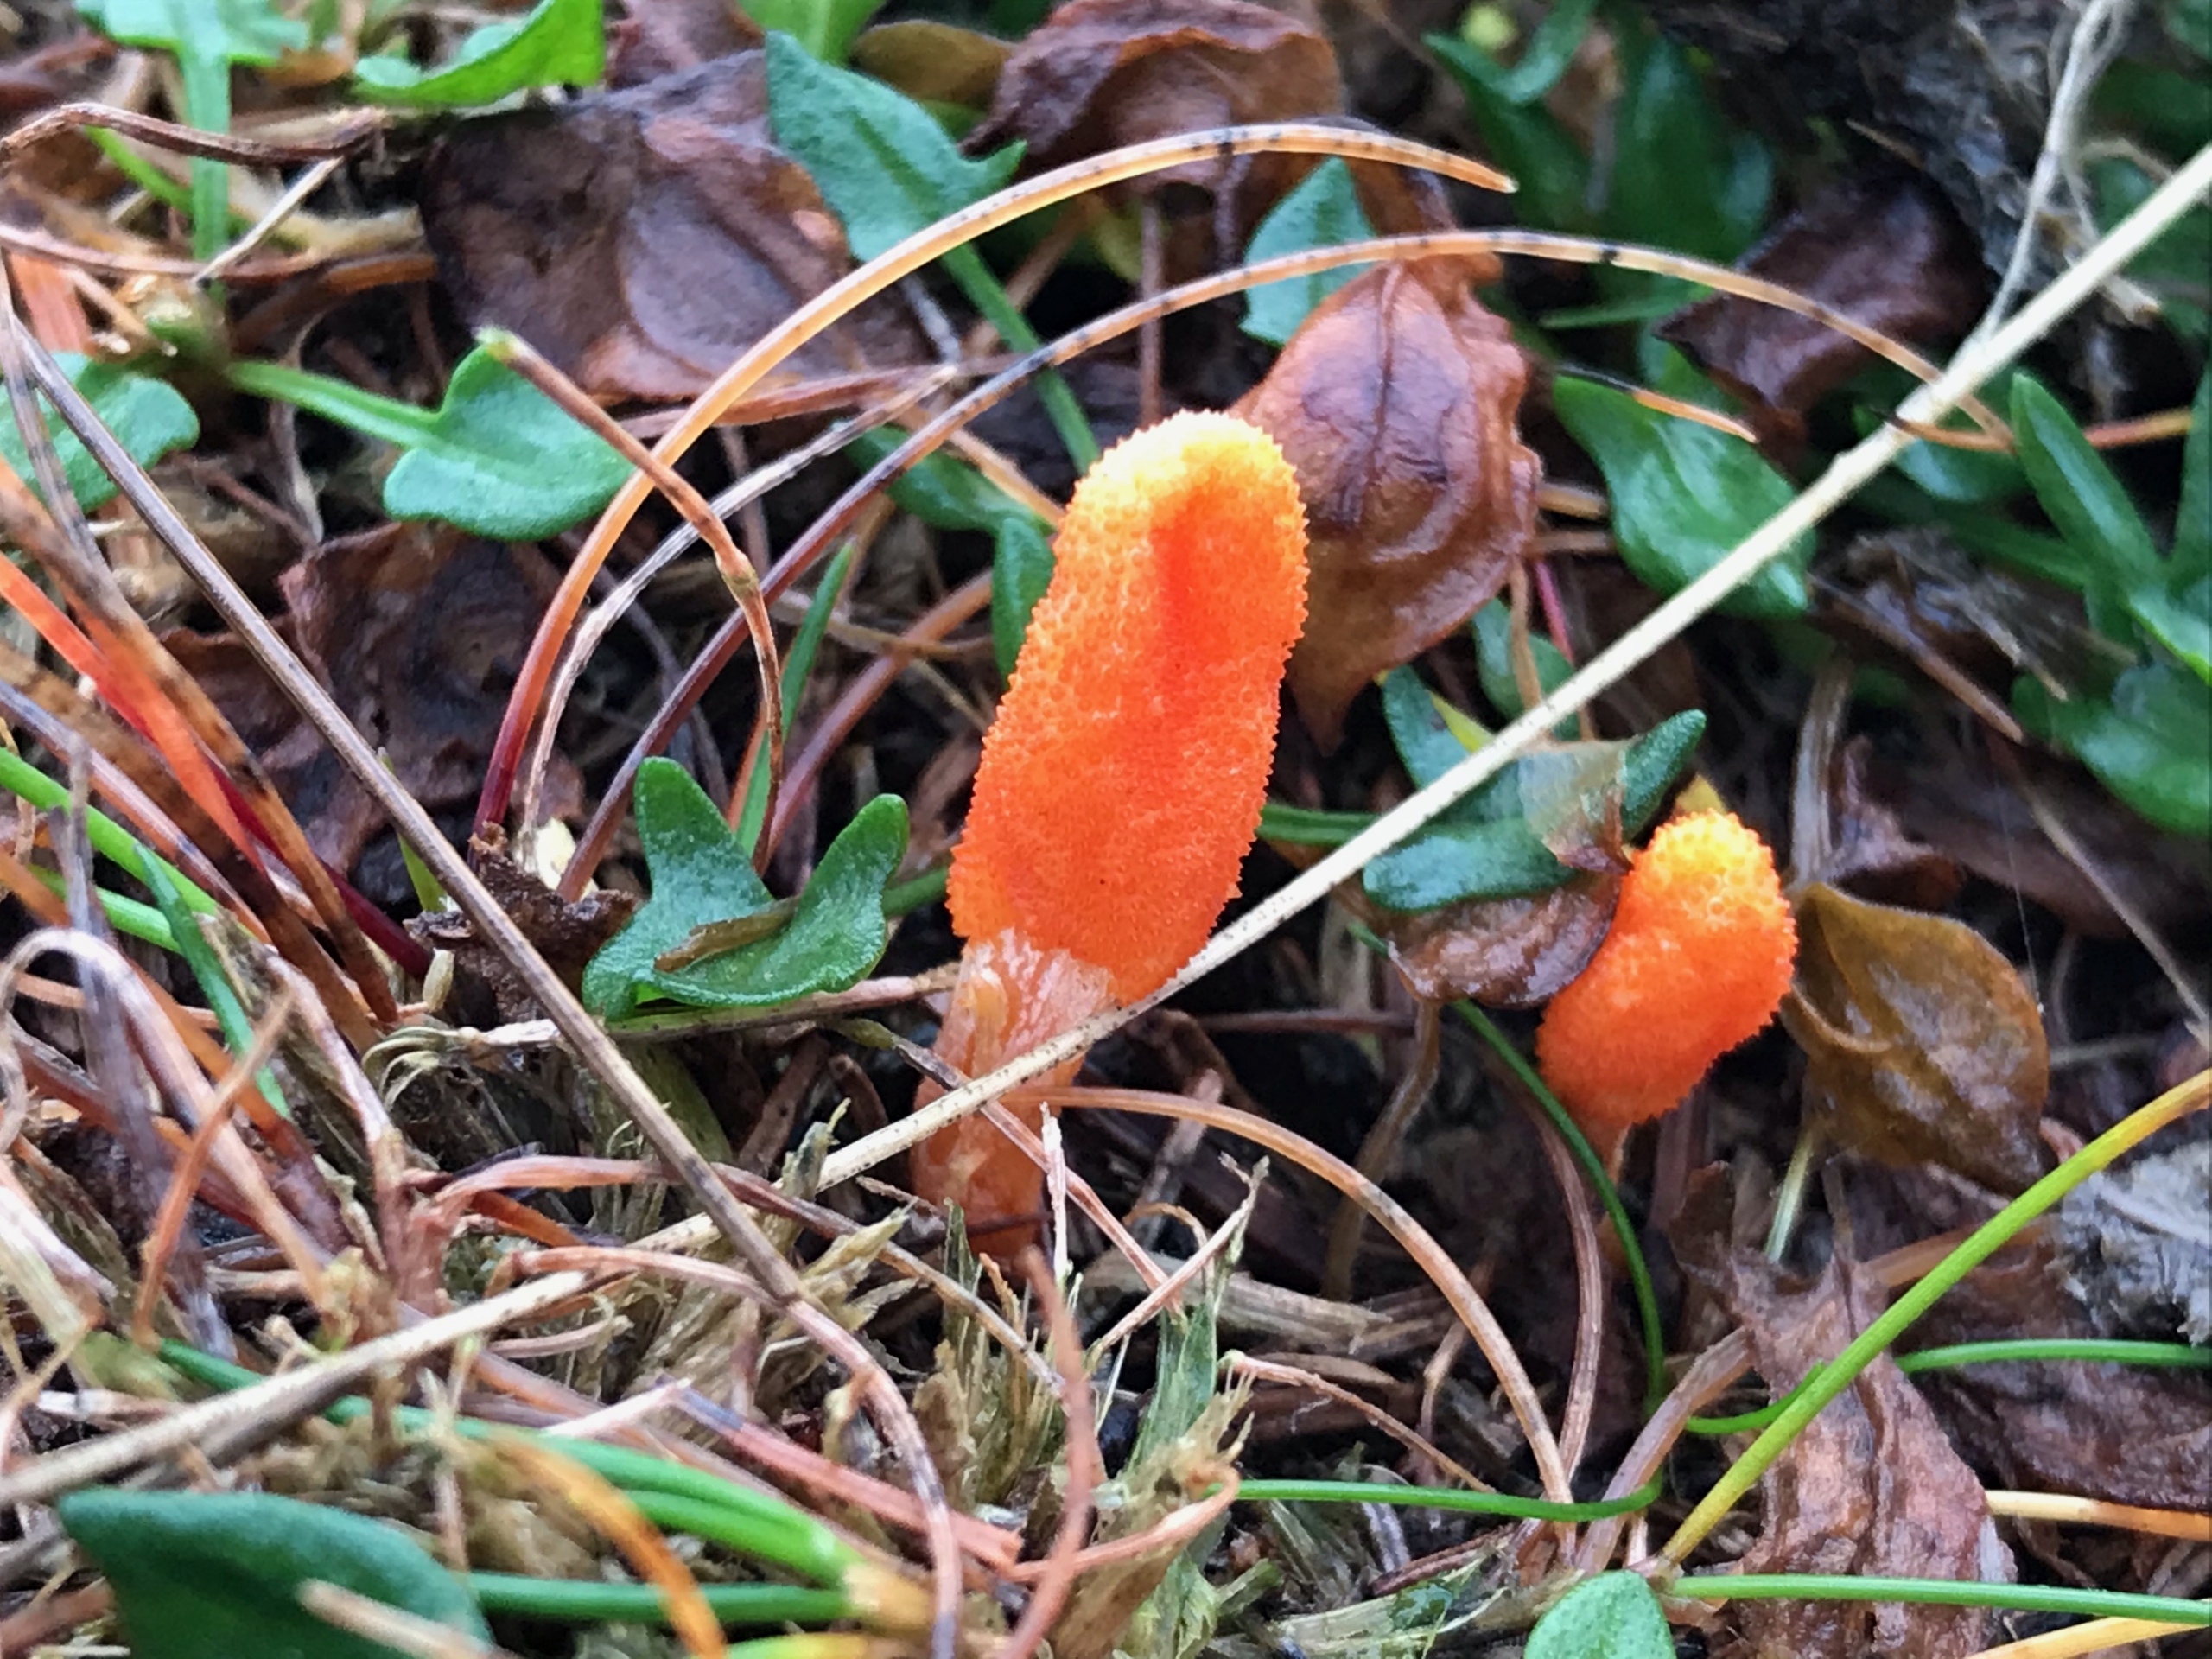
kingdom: Fungi
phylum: Ascomycota
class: Sordariomycetes
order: Hypocreales
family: Cordycipitaceae
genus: Cordyceps
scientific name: Cordyceps militaris
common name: Puppe-snyltekølle
